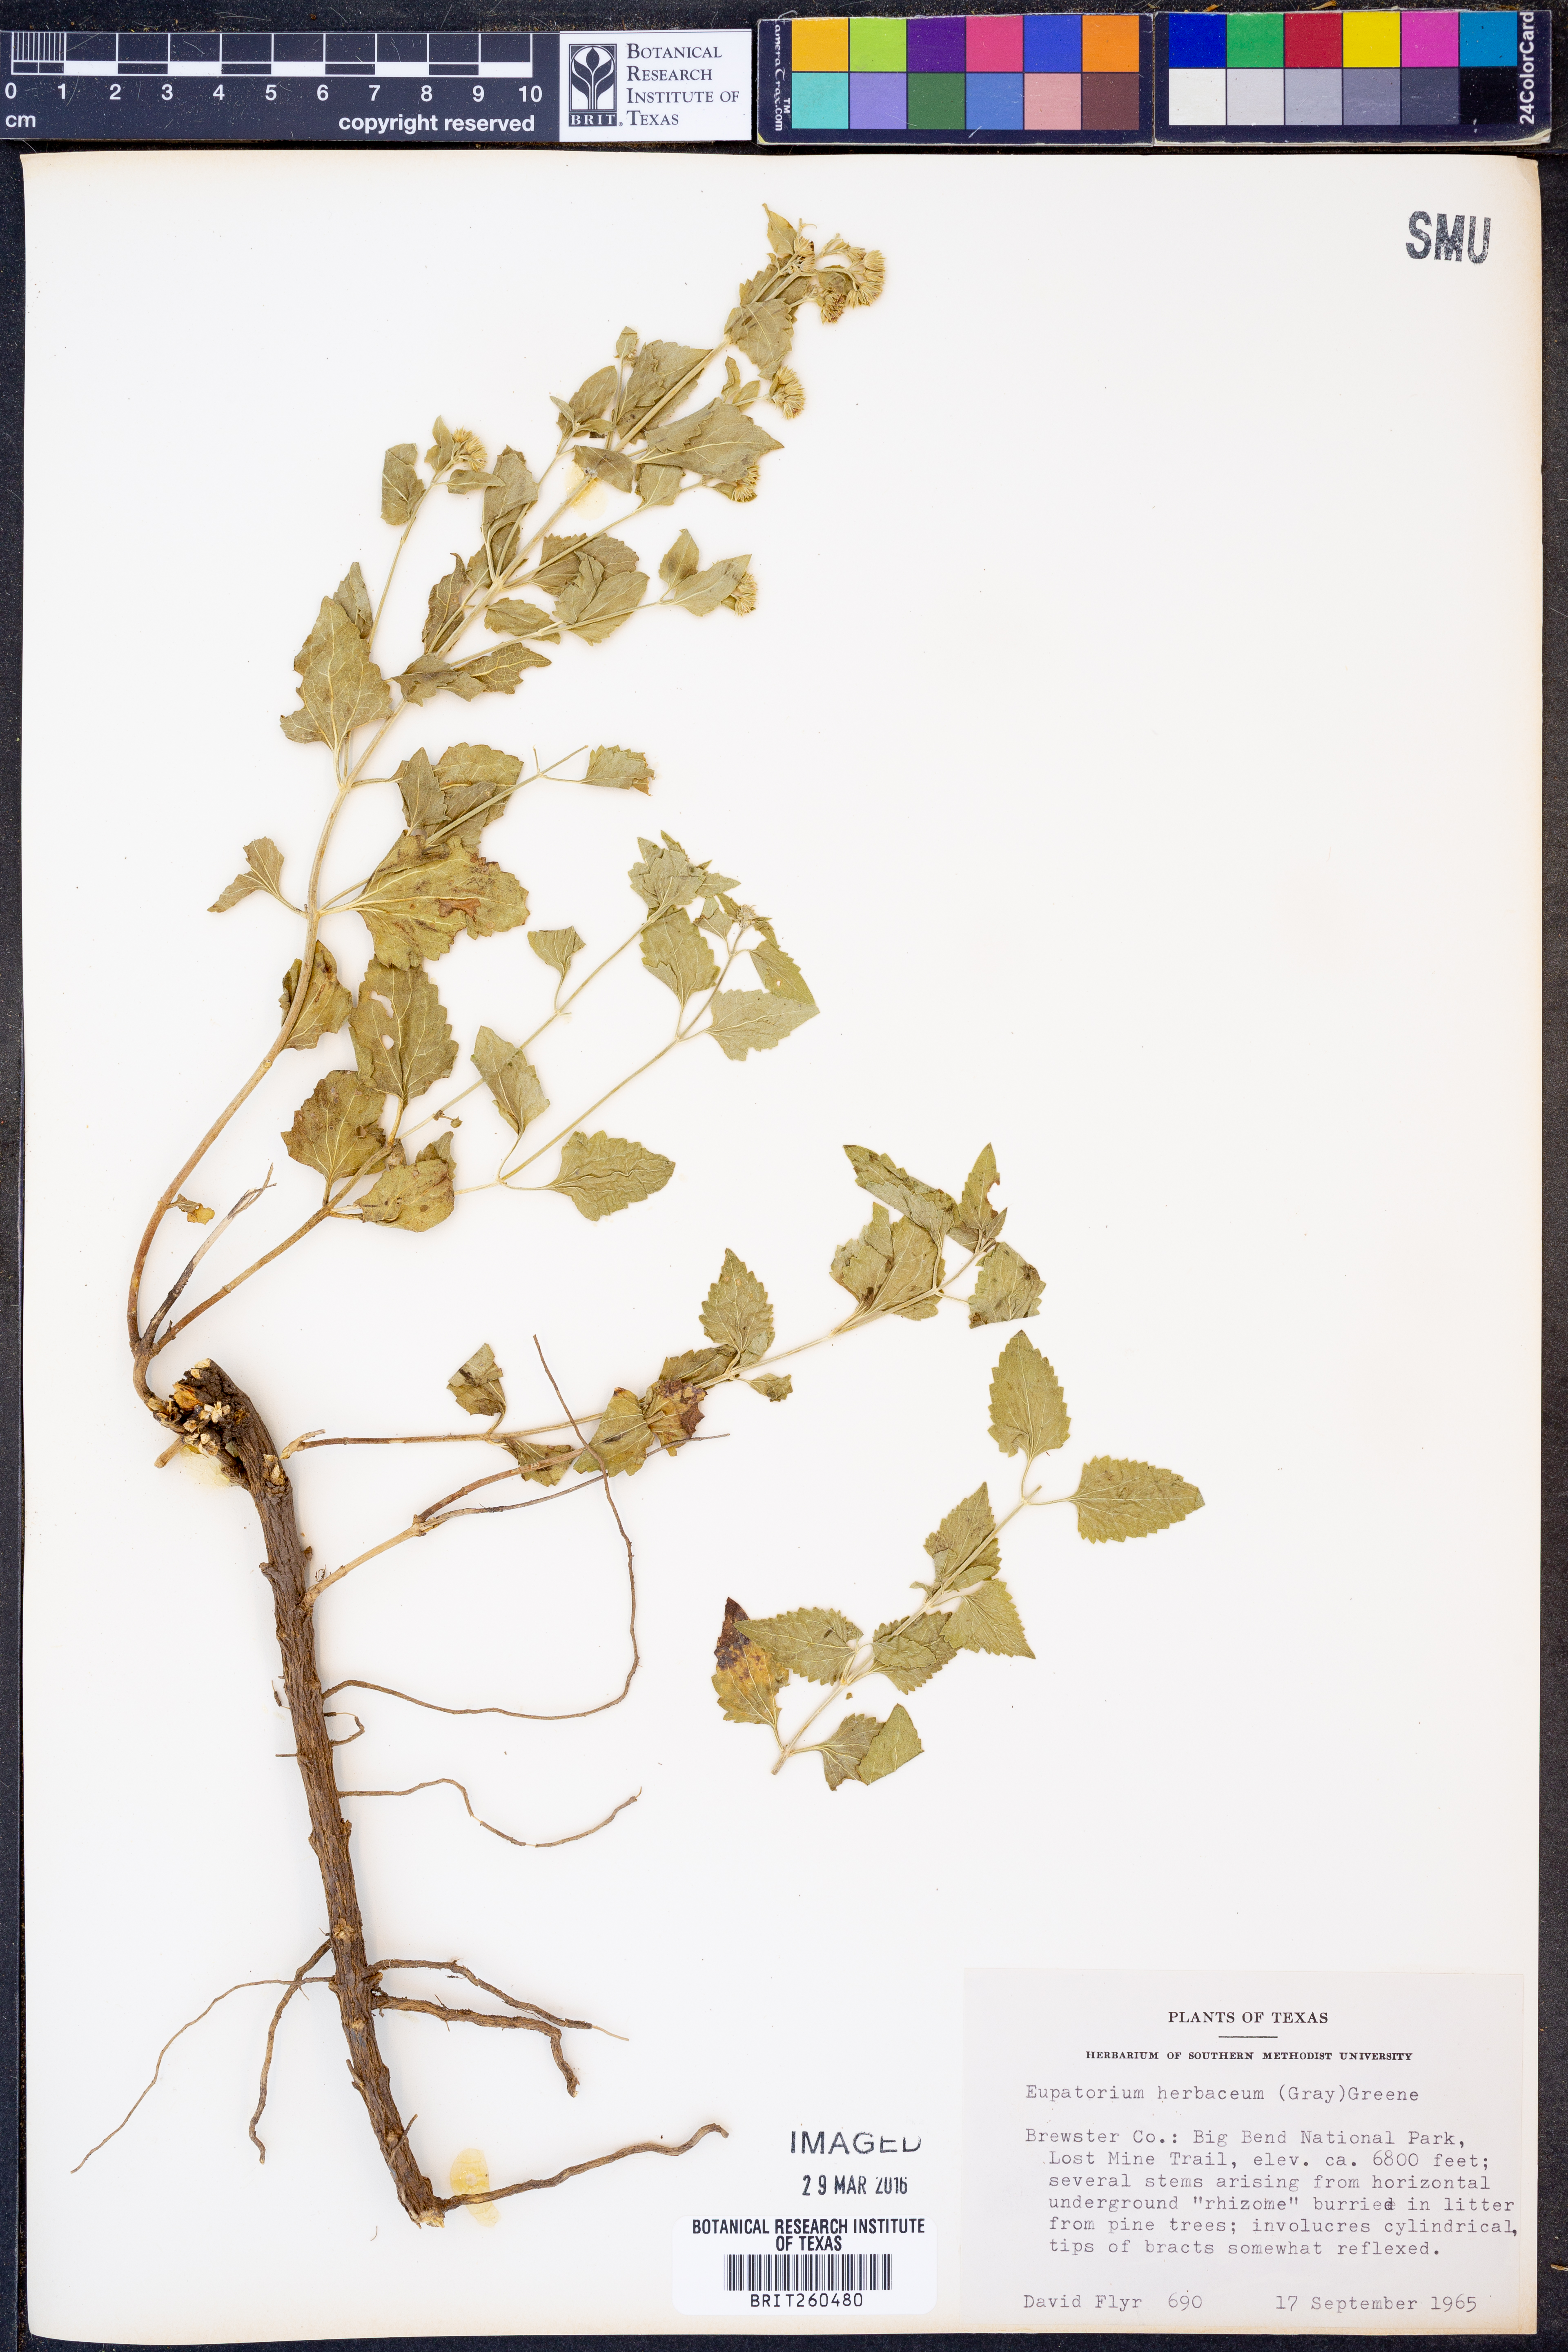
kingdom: Plantae
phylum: Tracheophyta
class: Magnoliopsida
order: Asterales
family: Asteraceae
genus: Ageratina
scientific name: Ageratina herbacea
